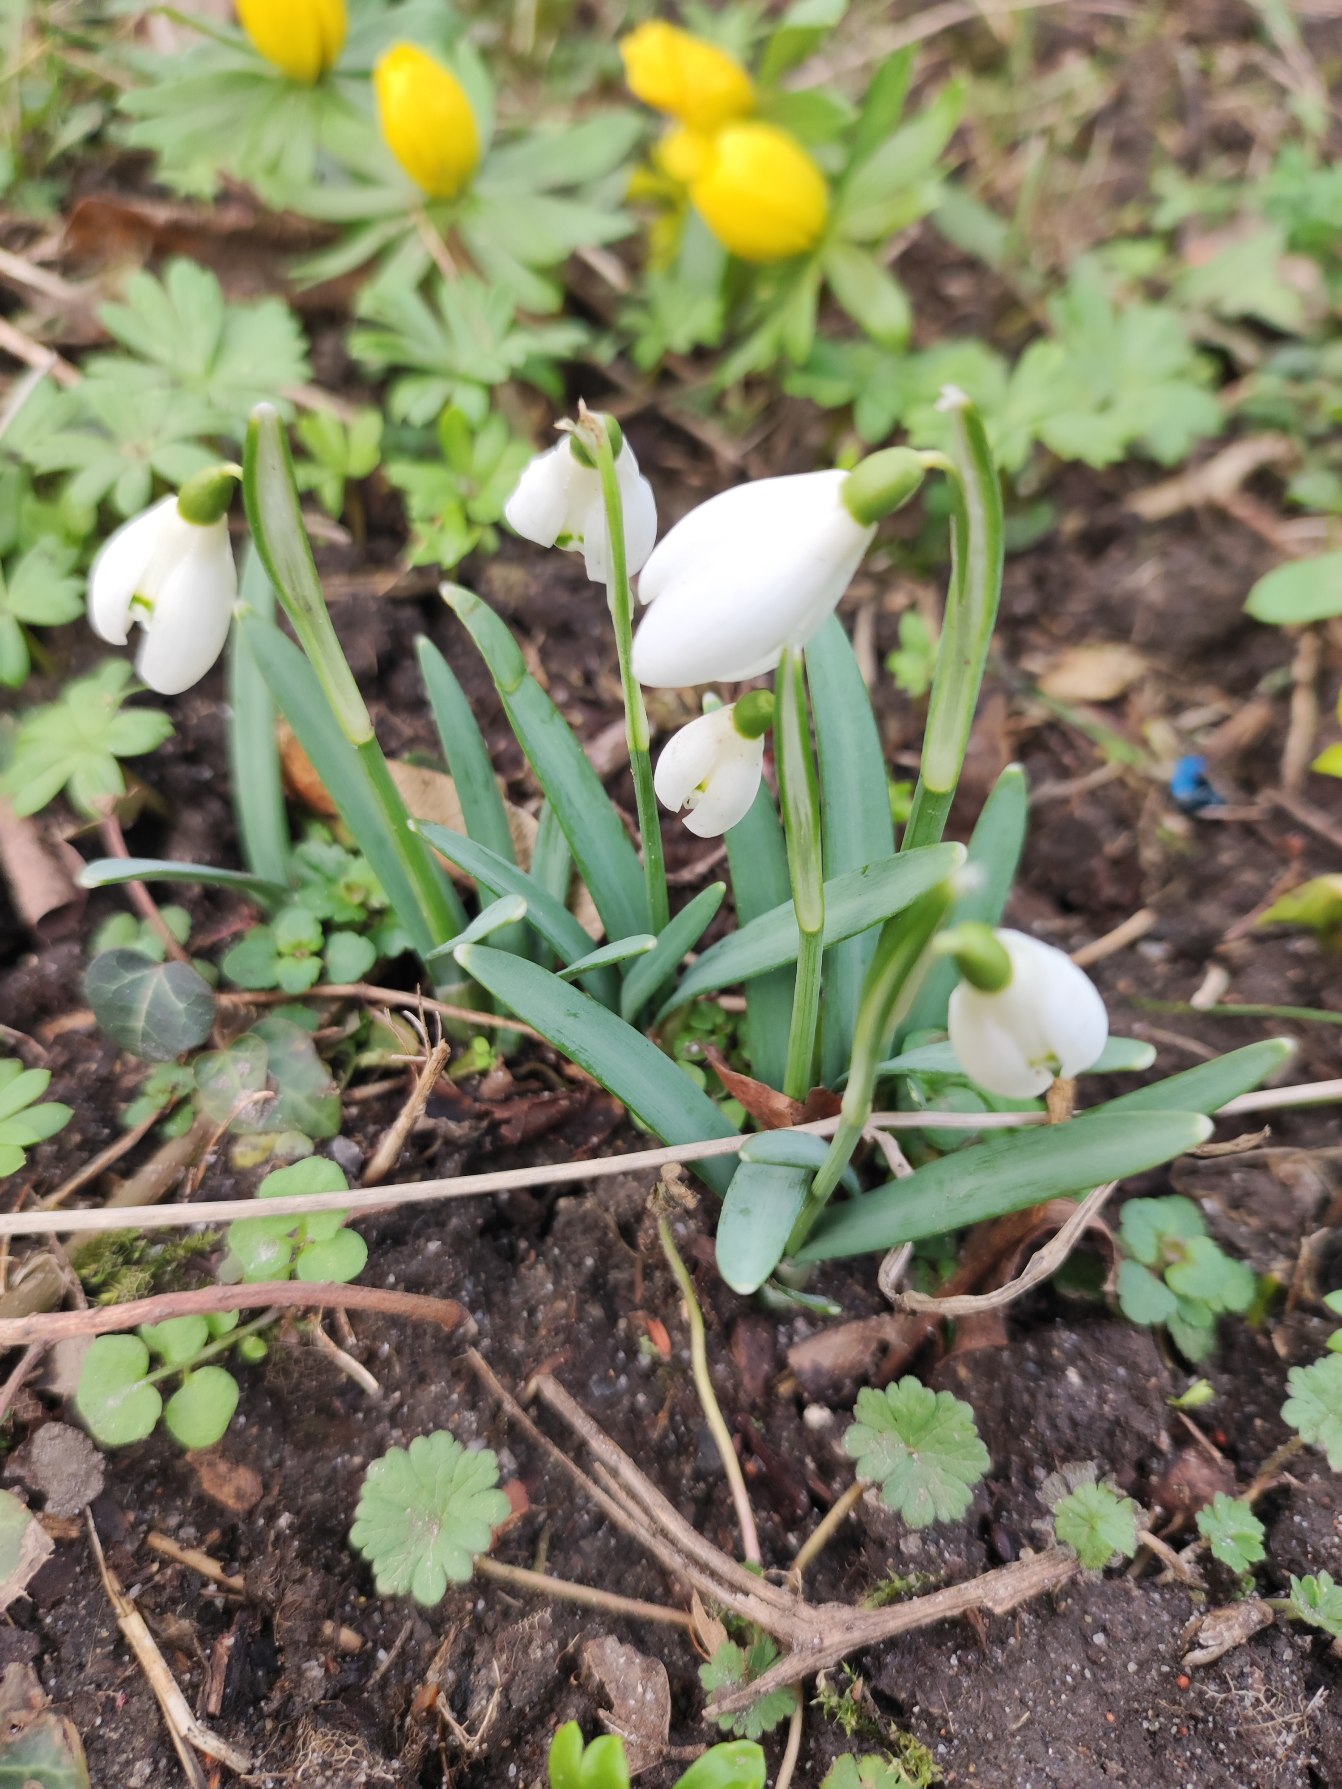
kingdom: Plantae
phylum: Tracheophyta
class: Liliopsida
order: Asparagales
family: Amaryllidaceae
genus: Galanthus
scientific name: Galanthus nivalis
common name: Vintergæk
